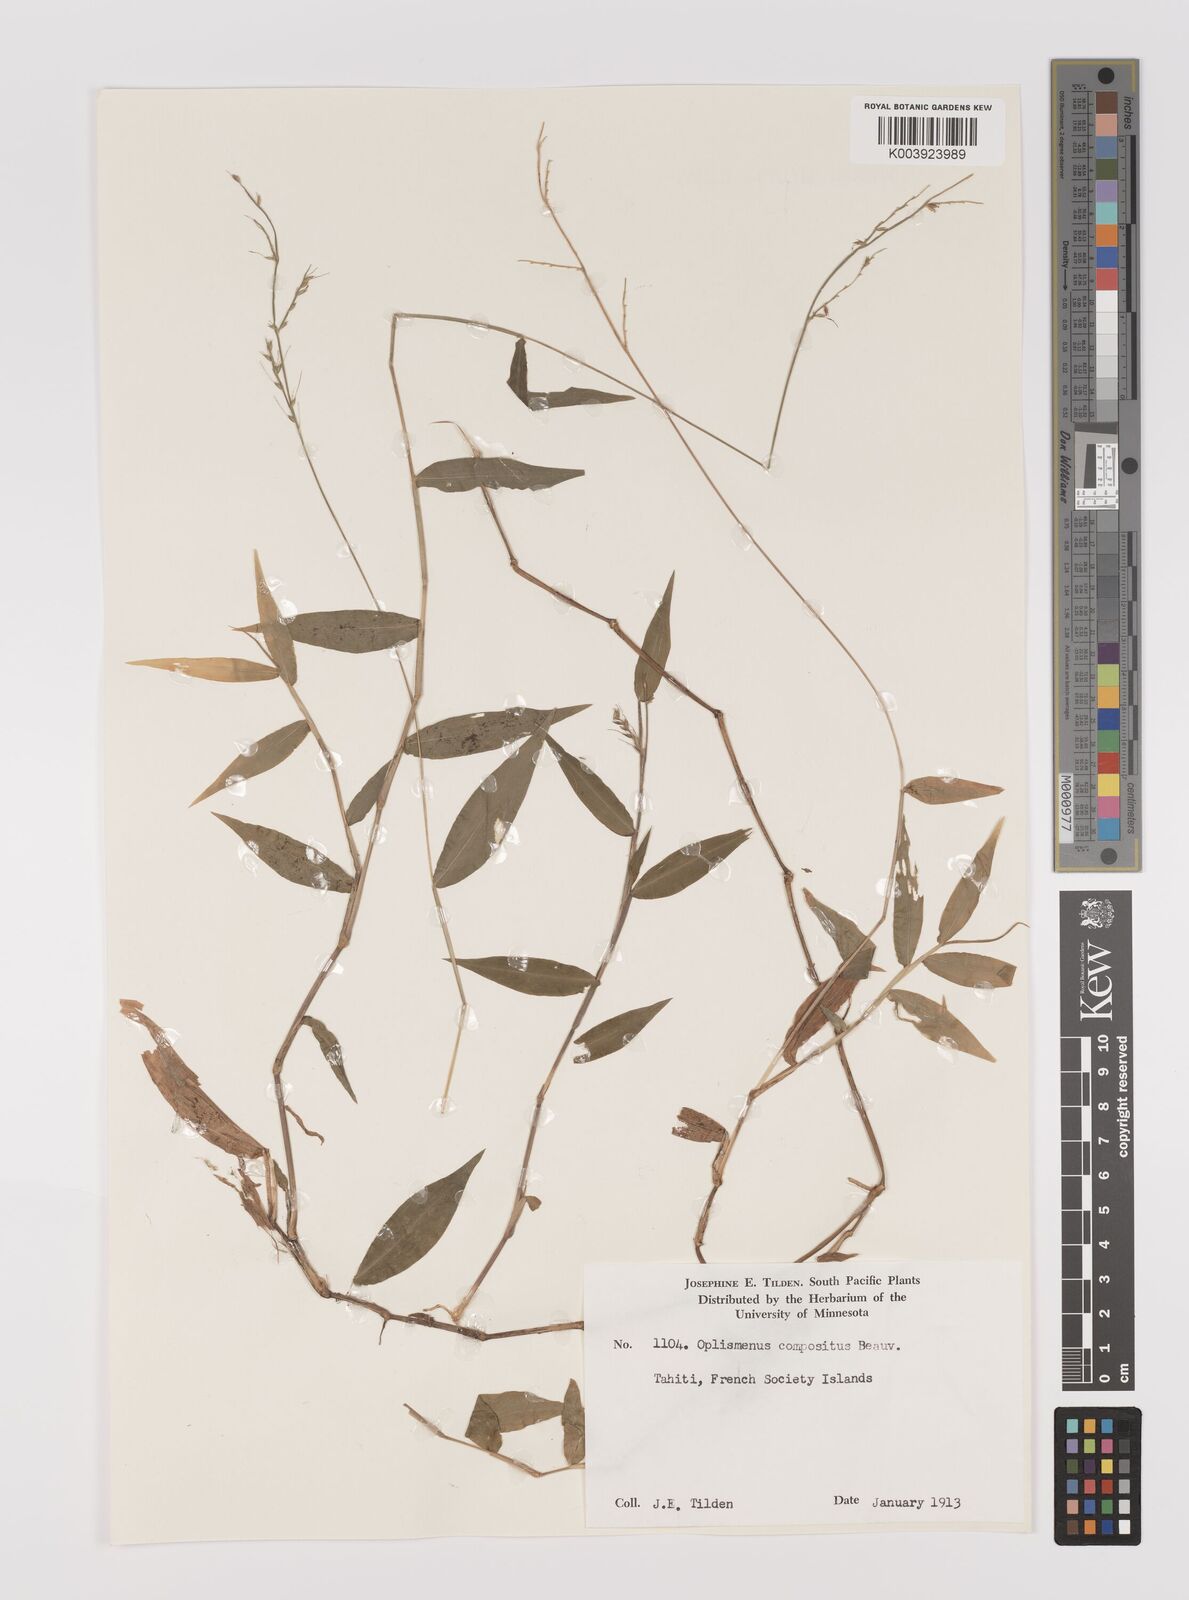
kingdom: Plantae
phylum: Tracheophyta
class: Liliopsida
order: Poales
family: Poaceae
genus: Oplismenus
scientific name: Oplismenus compositus
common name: Running mountain grass
